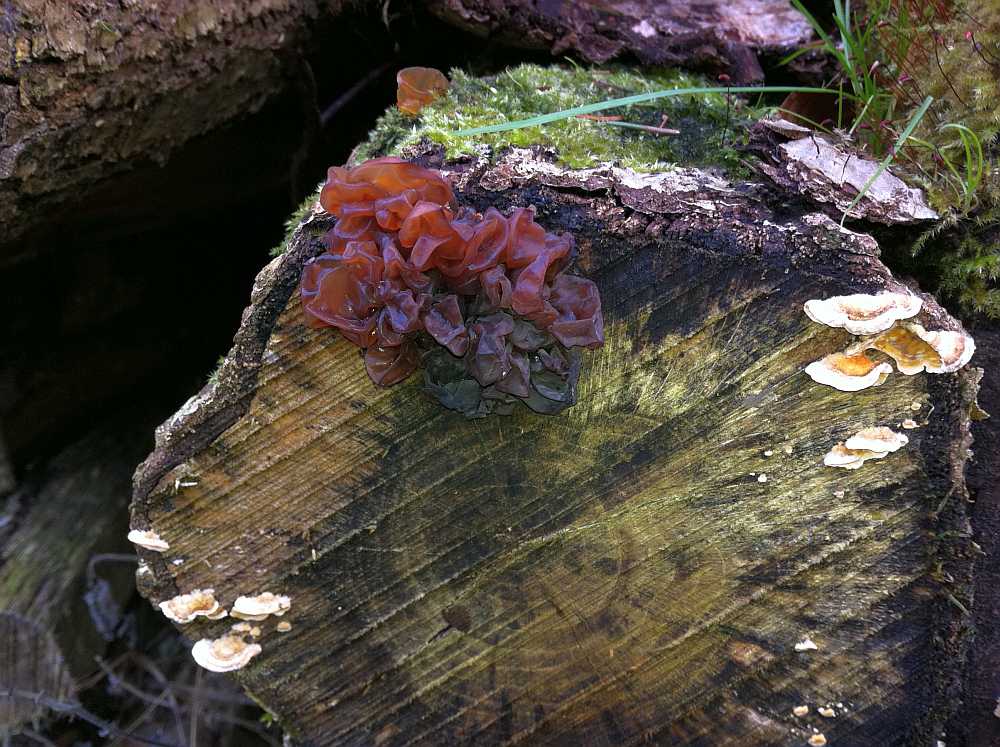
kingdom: Fungi
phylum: Basidiomycota
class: Tremellomycetes
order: Tremellales
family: Tremellaceae
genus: Phaeotremella
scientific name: Phaeotremella frondosa
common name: kæmpe-bævresvamp
